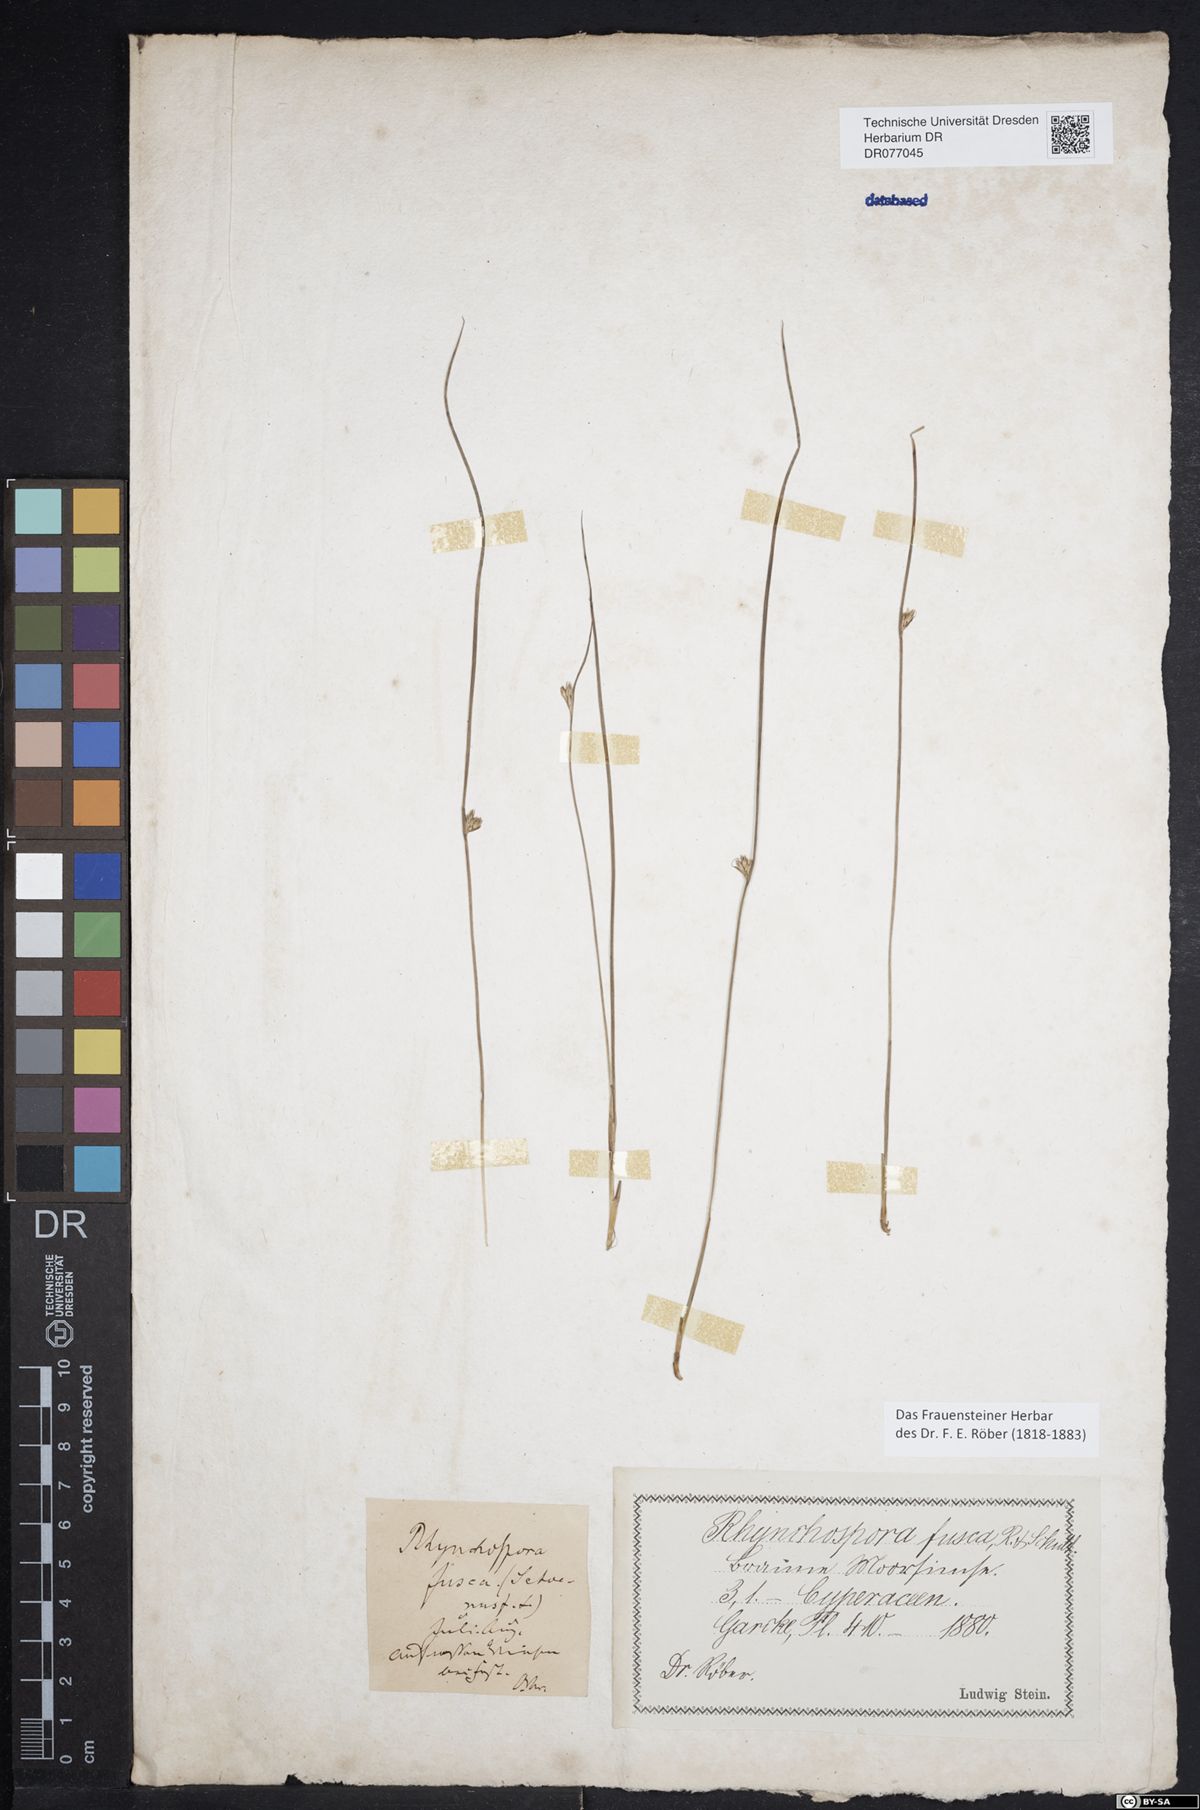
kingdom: Plantae
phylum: Tracheophyta
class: Liliopsida
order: Poales
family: Juncaceae
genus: Juncus
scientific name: Juncus filiformis
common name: Thread rush
